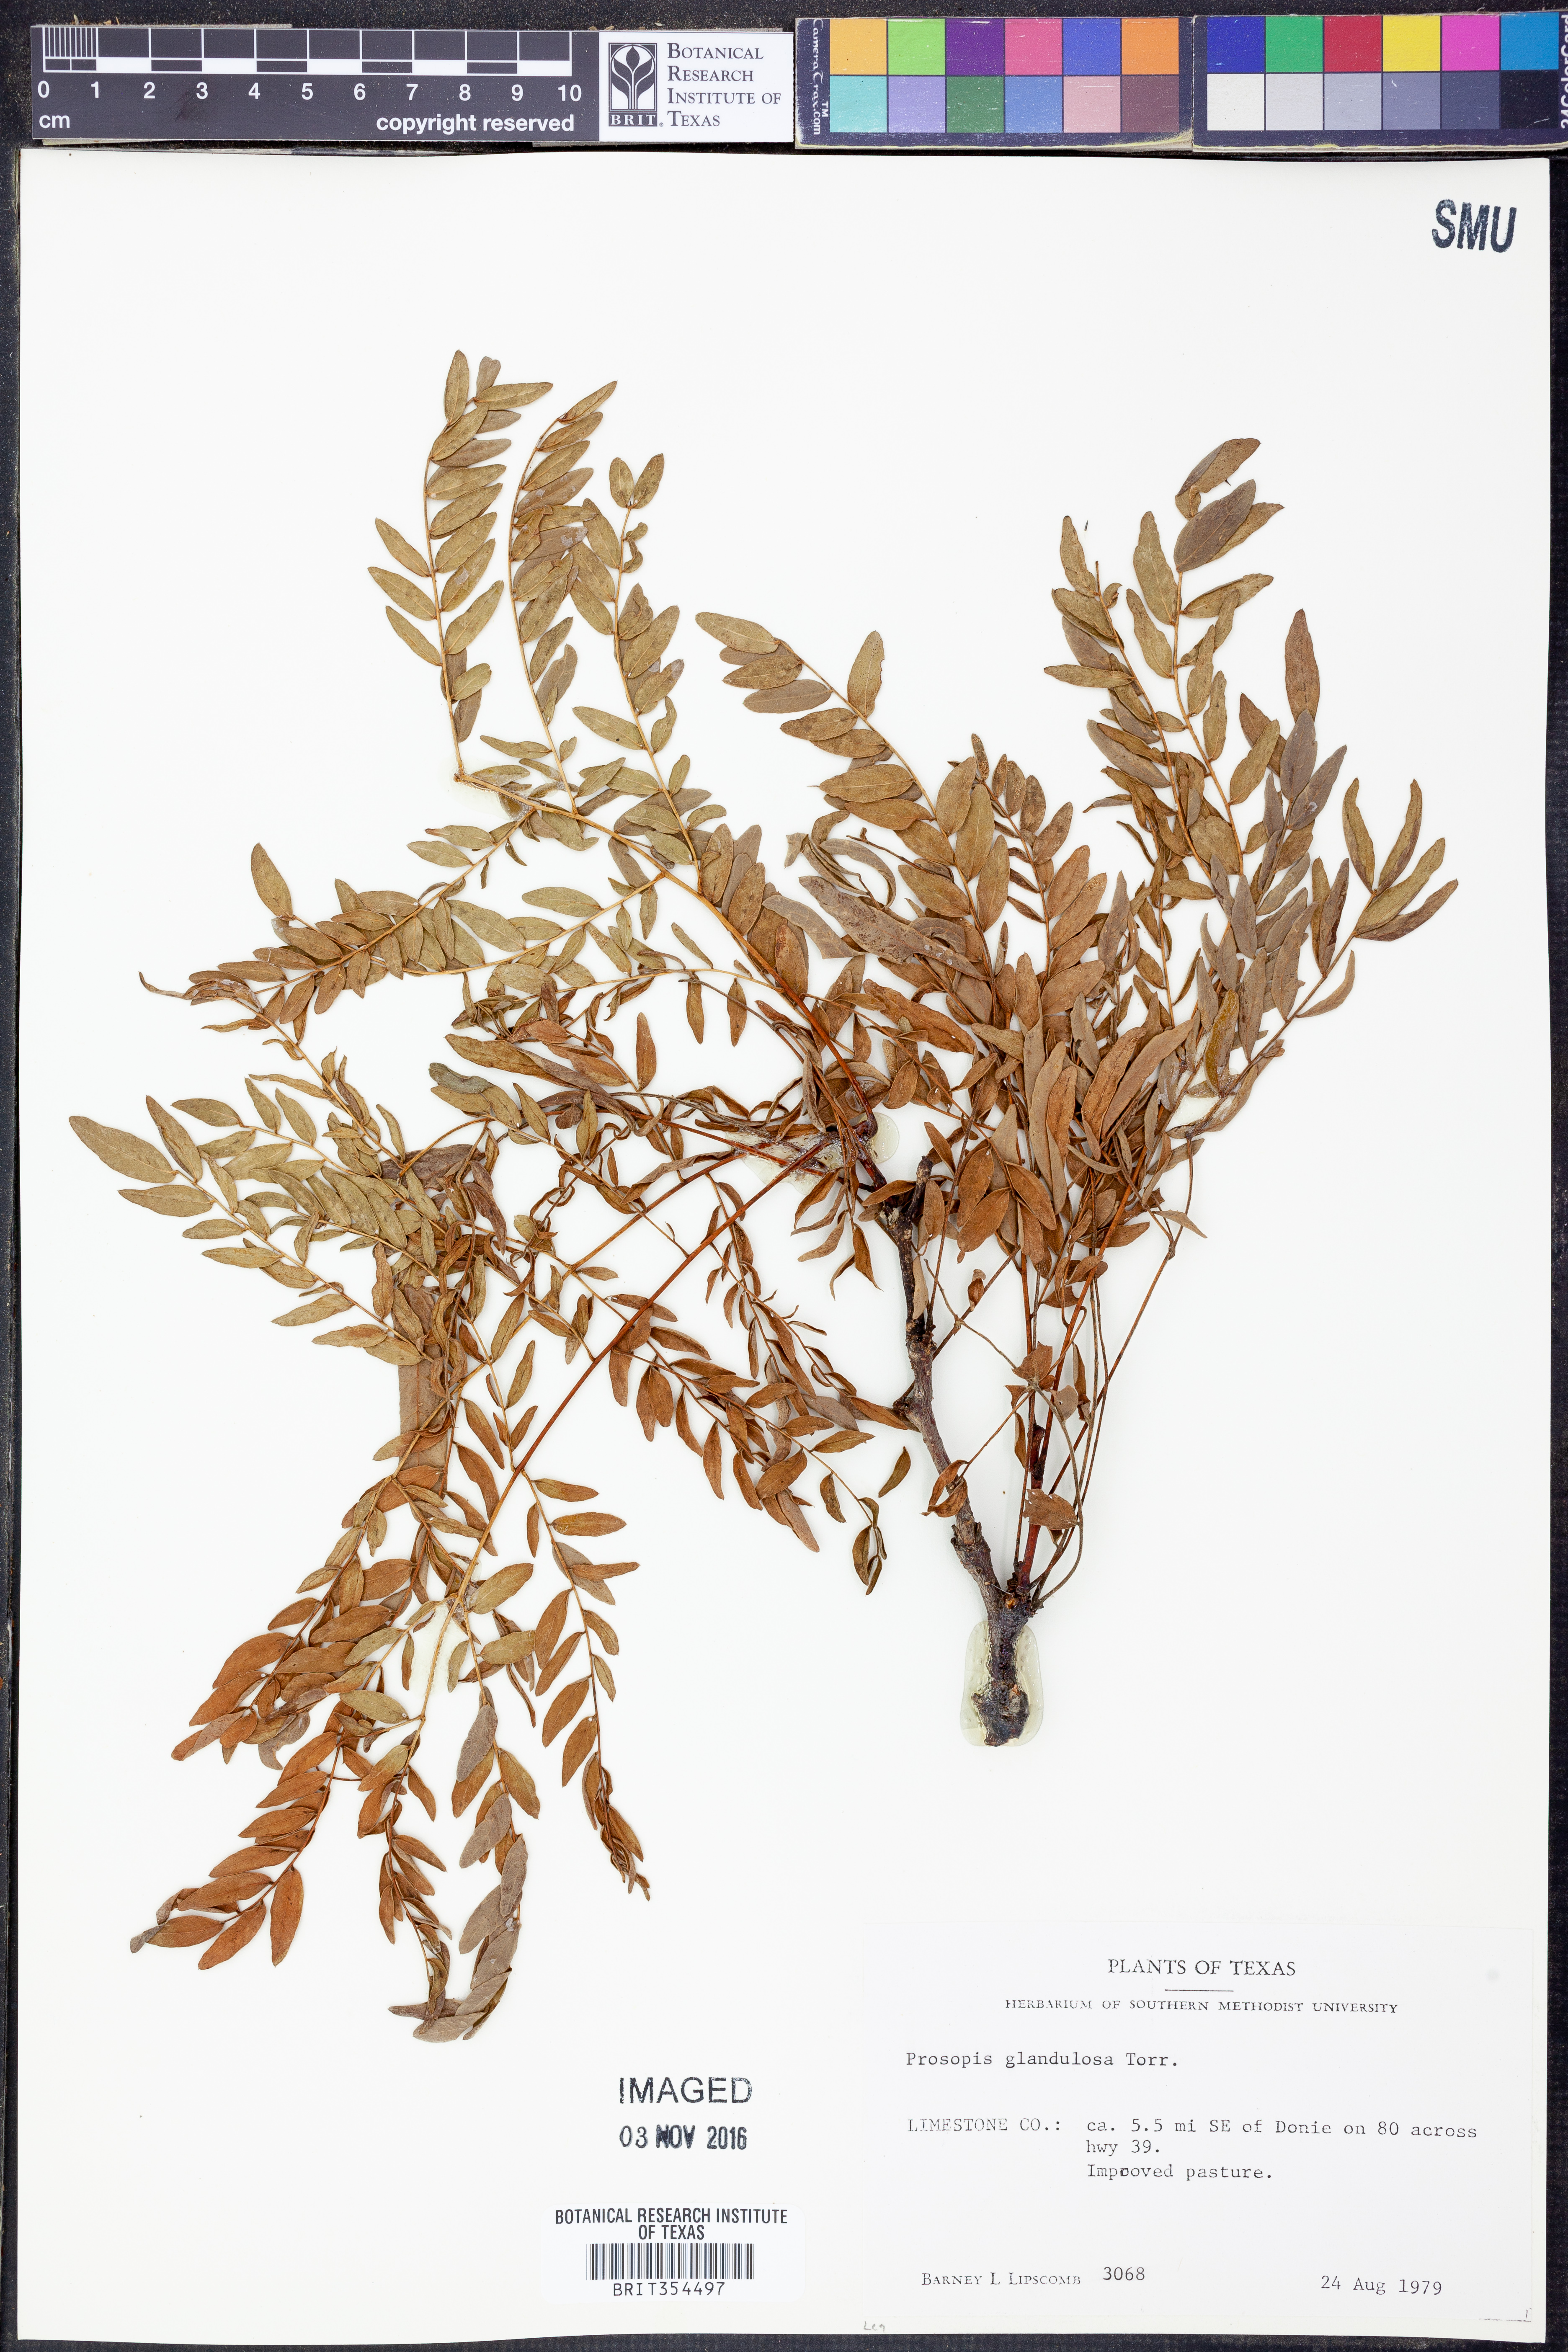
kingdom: Plantae
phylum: Tracheophyta
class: Magnoliopsida
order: Fabales
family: Fabaceae
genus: Prosopis
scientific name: Prosopis glandulosa
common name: Honey mesquite
